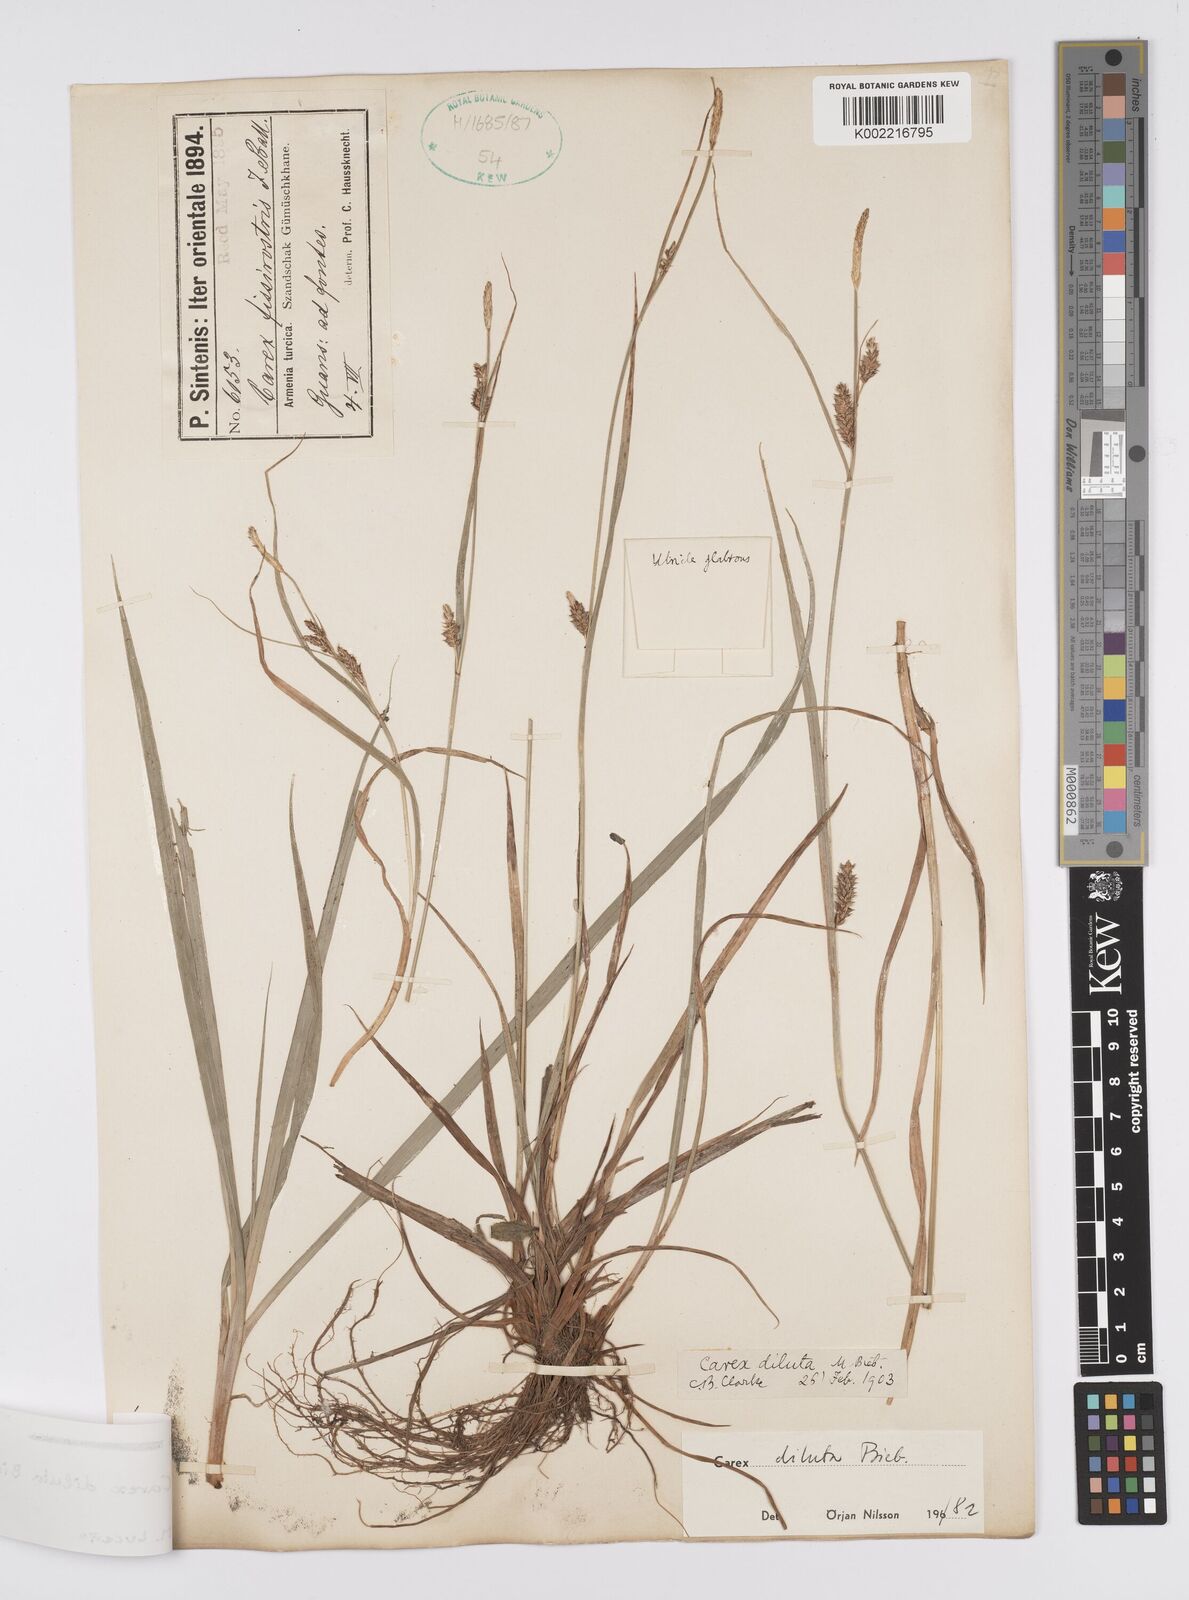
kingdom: Plantae
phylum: Tracheophyta
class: Liliopsida
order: Poales
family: Cyperaceae
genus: Carex
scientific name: Carex diluta
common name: Sedge
